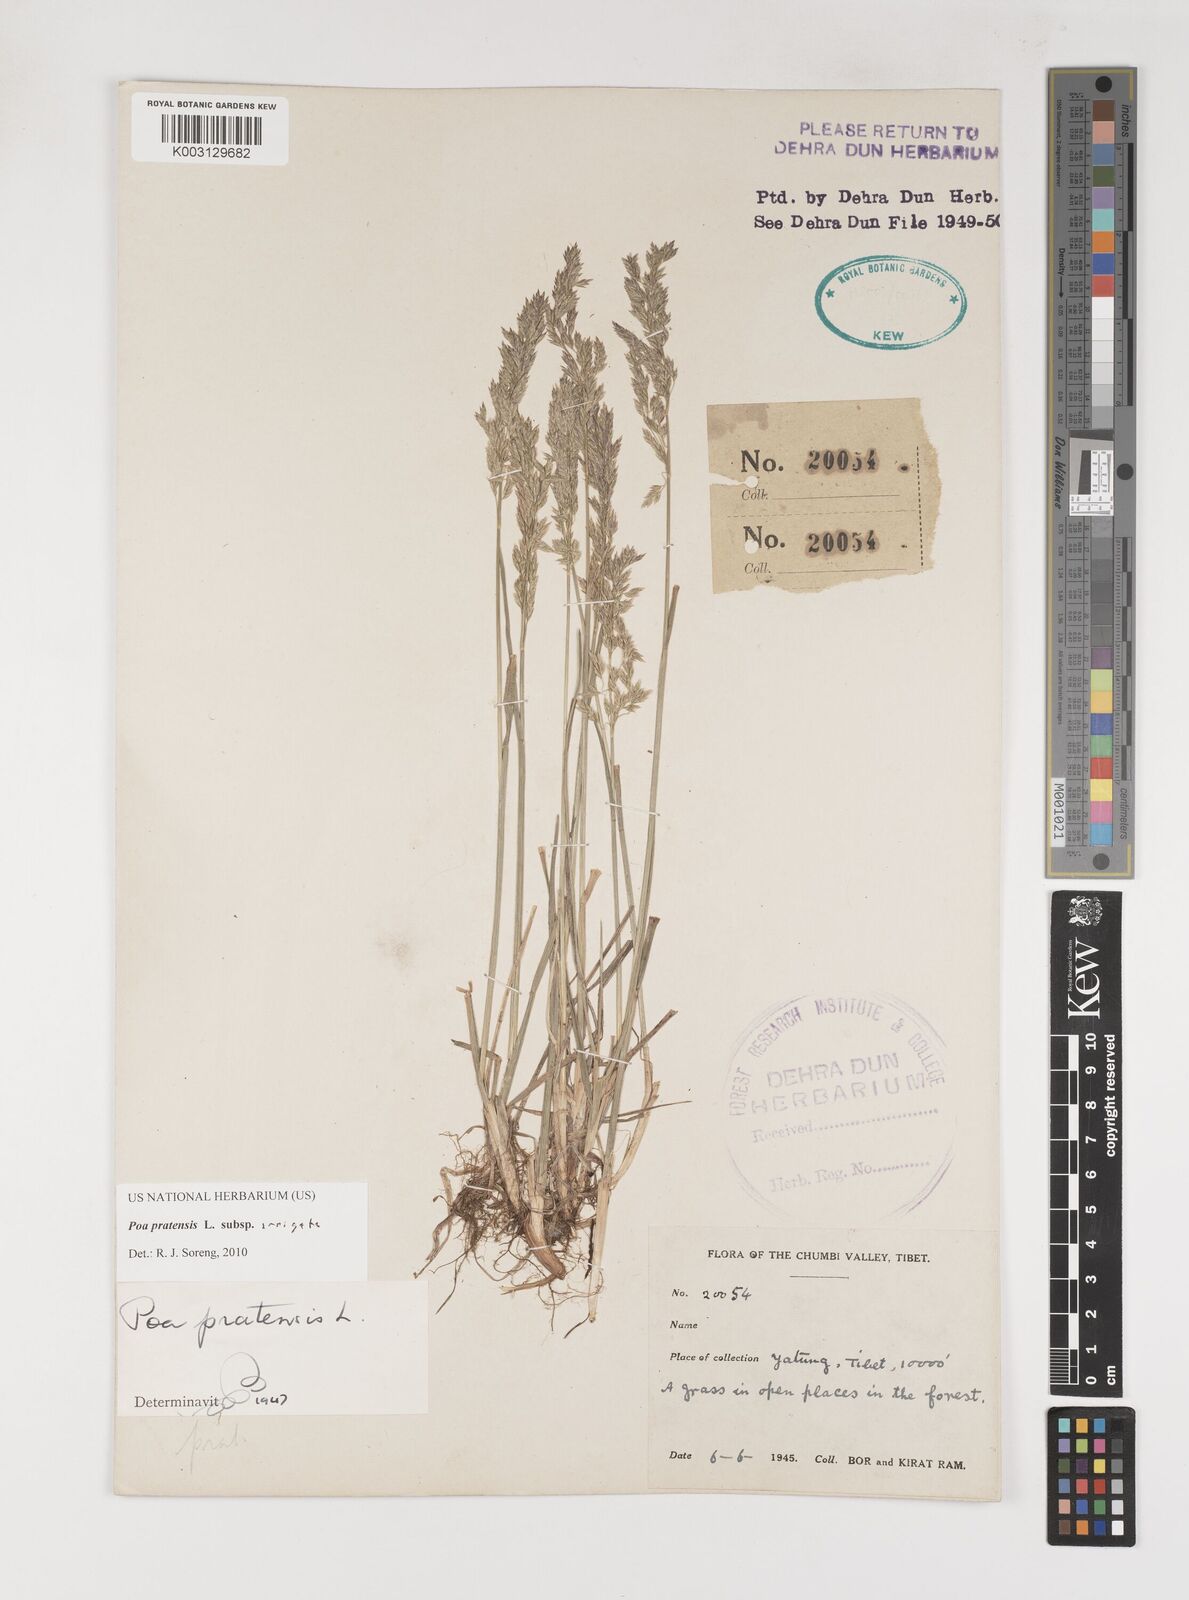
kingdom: Plantae
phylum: Tracheophyta
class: Liliopsida
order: Poales
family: Poaceae
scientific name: Poaceae
